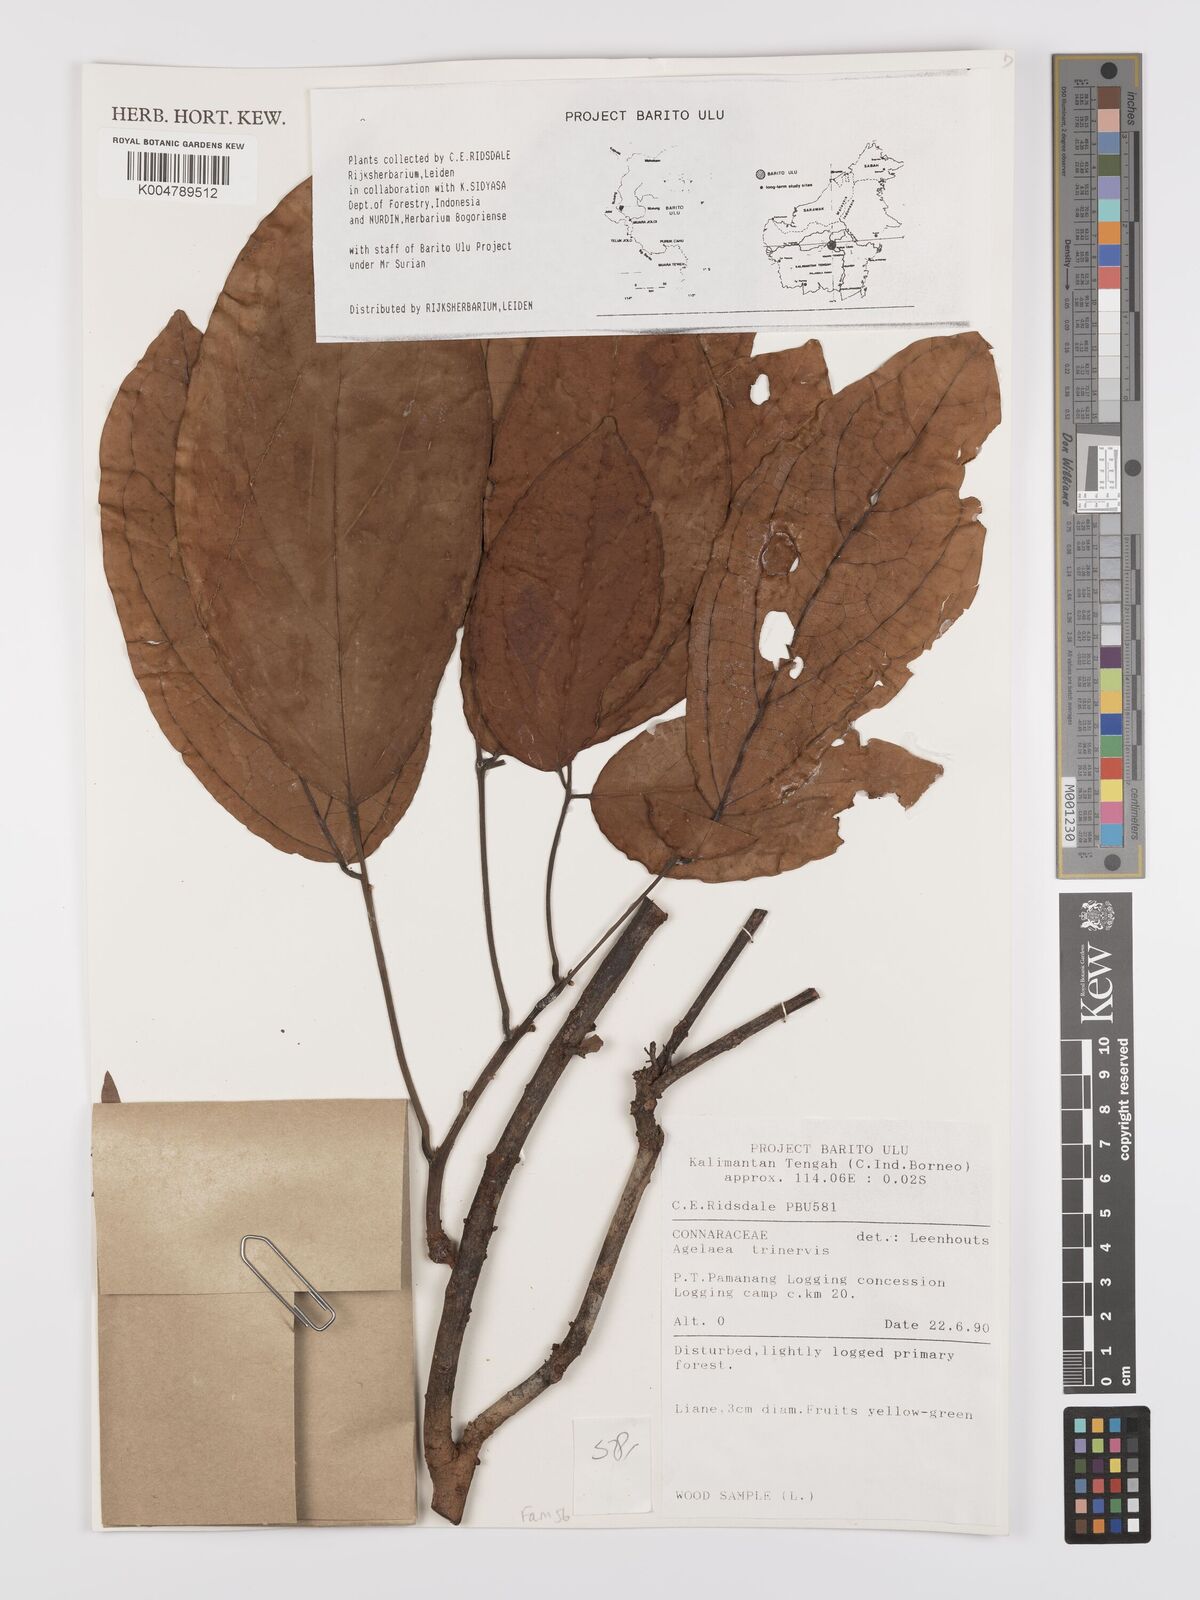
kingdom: Plantae
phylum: Tracheophyta
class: Magnoliopsida
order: Oxalidales
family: Connaraceae
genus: Agelaea
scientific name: Agelaea trinervis
